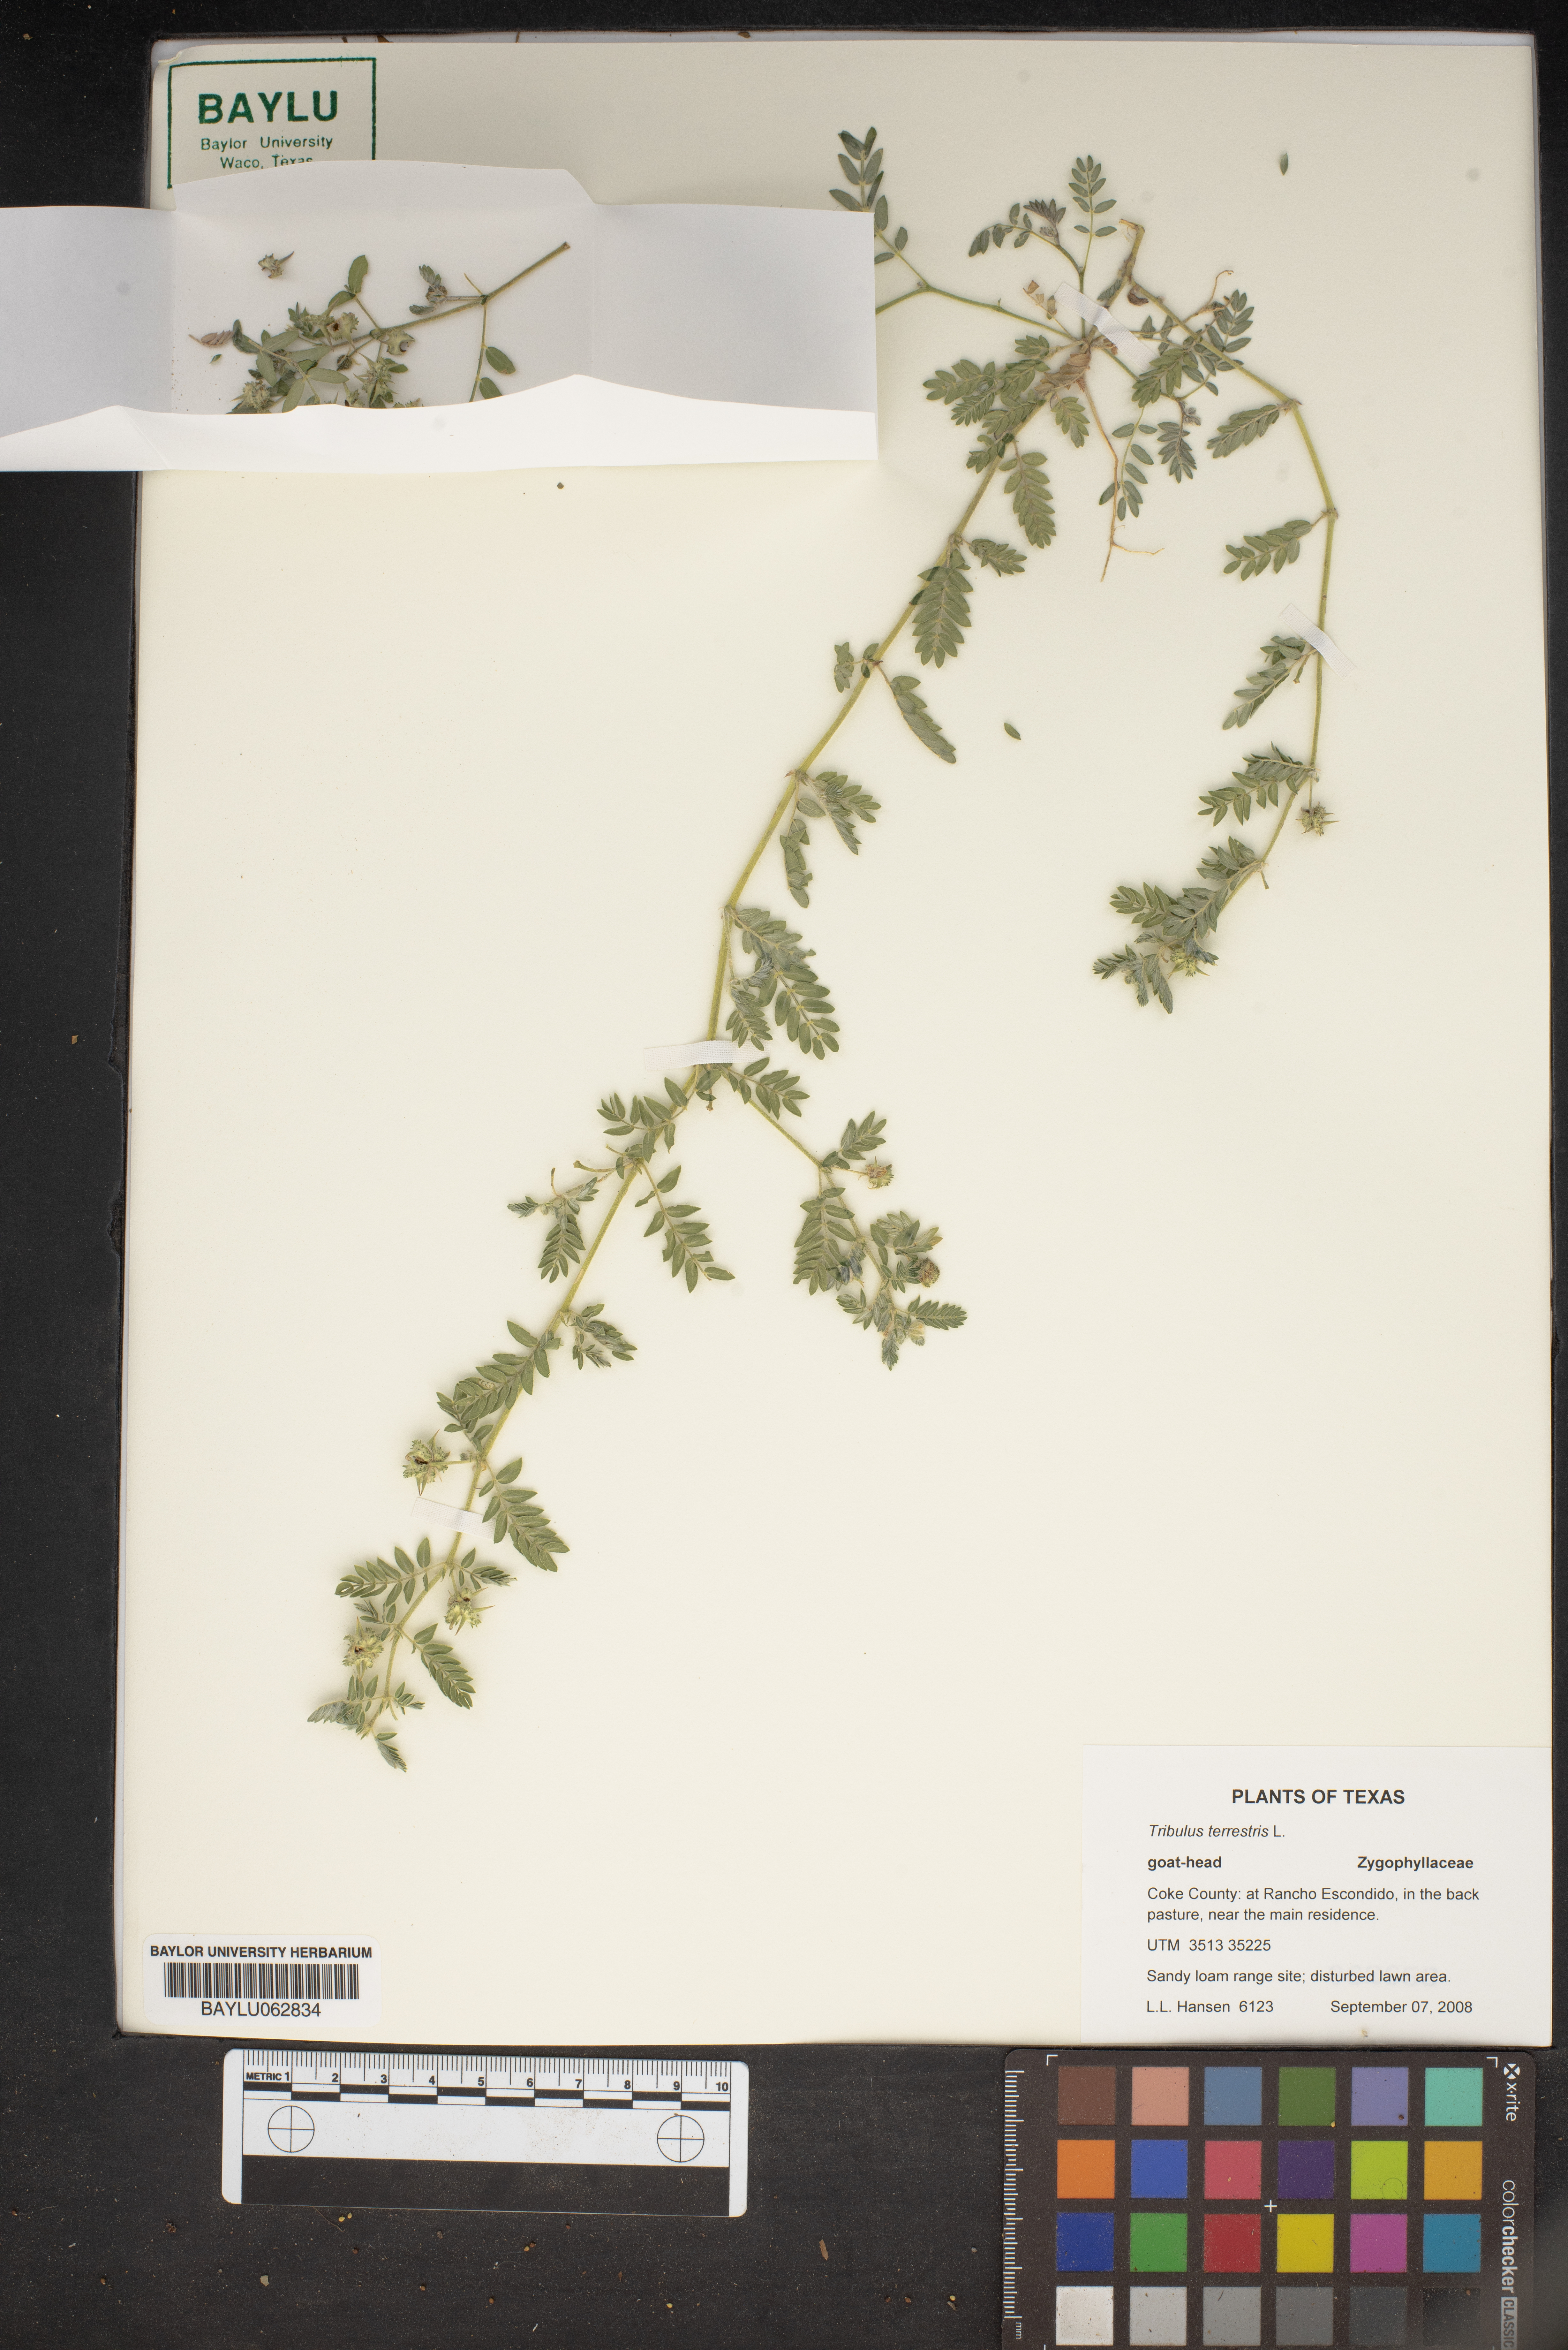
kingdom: Plantae
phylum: Tracheophyta
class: Magnoliopsida
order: Zygophyllales
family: Zygophyllaceae
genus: Tribulus
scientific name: Tribulus terrestris
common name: Puncturevine
